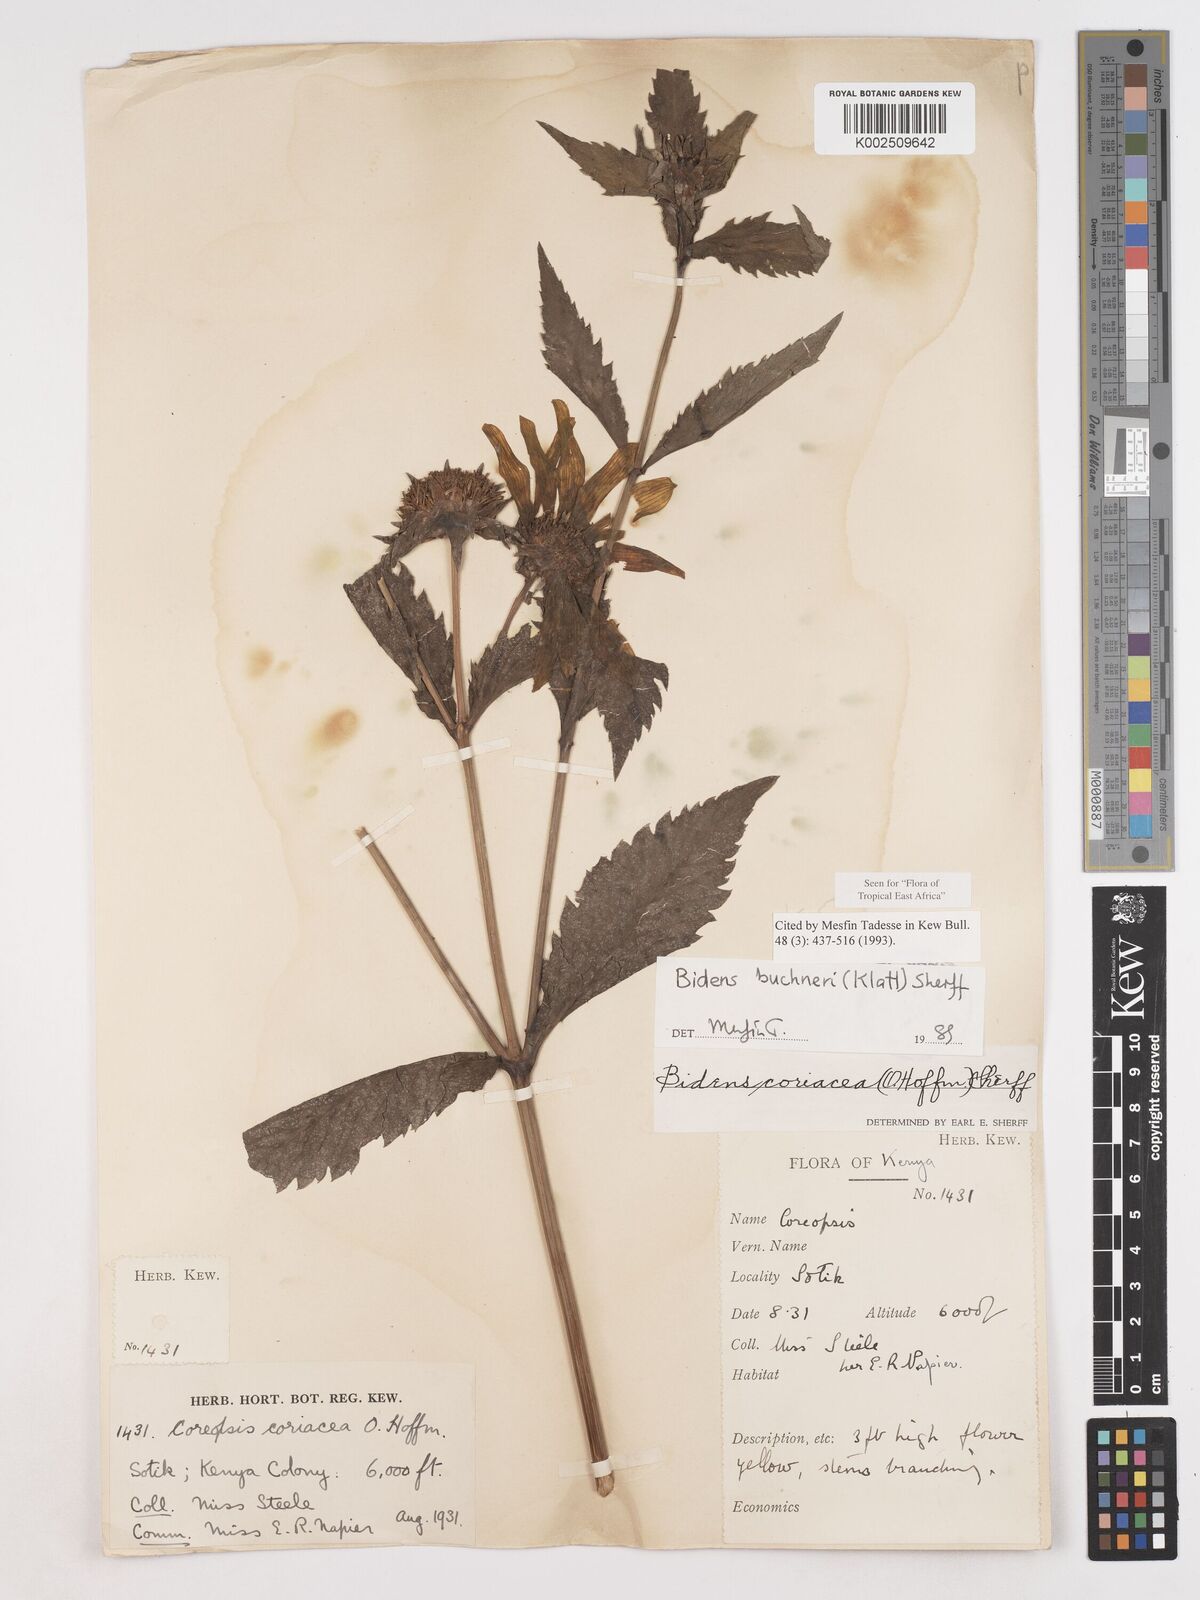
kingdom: Plantae
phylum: Tracheophyta
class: Magnoliopsida
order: Asterales
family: Asteraceae
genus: Bidens
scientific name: Bidens buchneri
